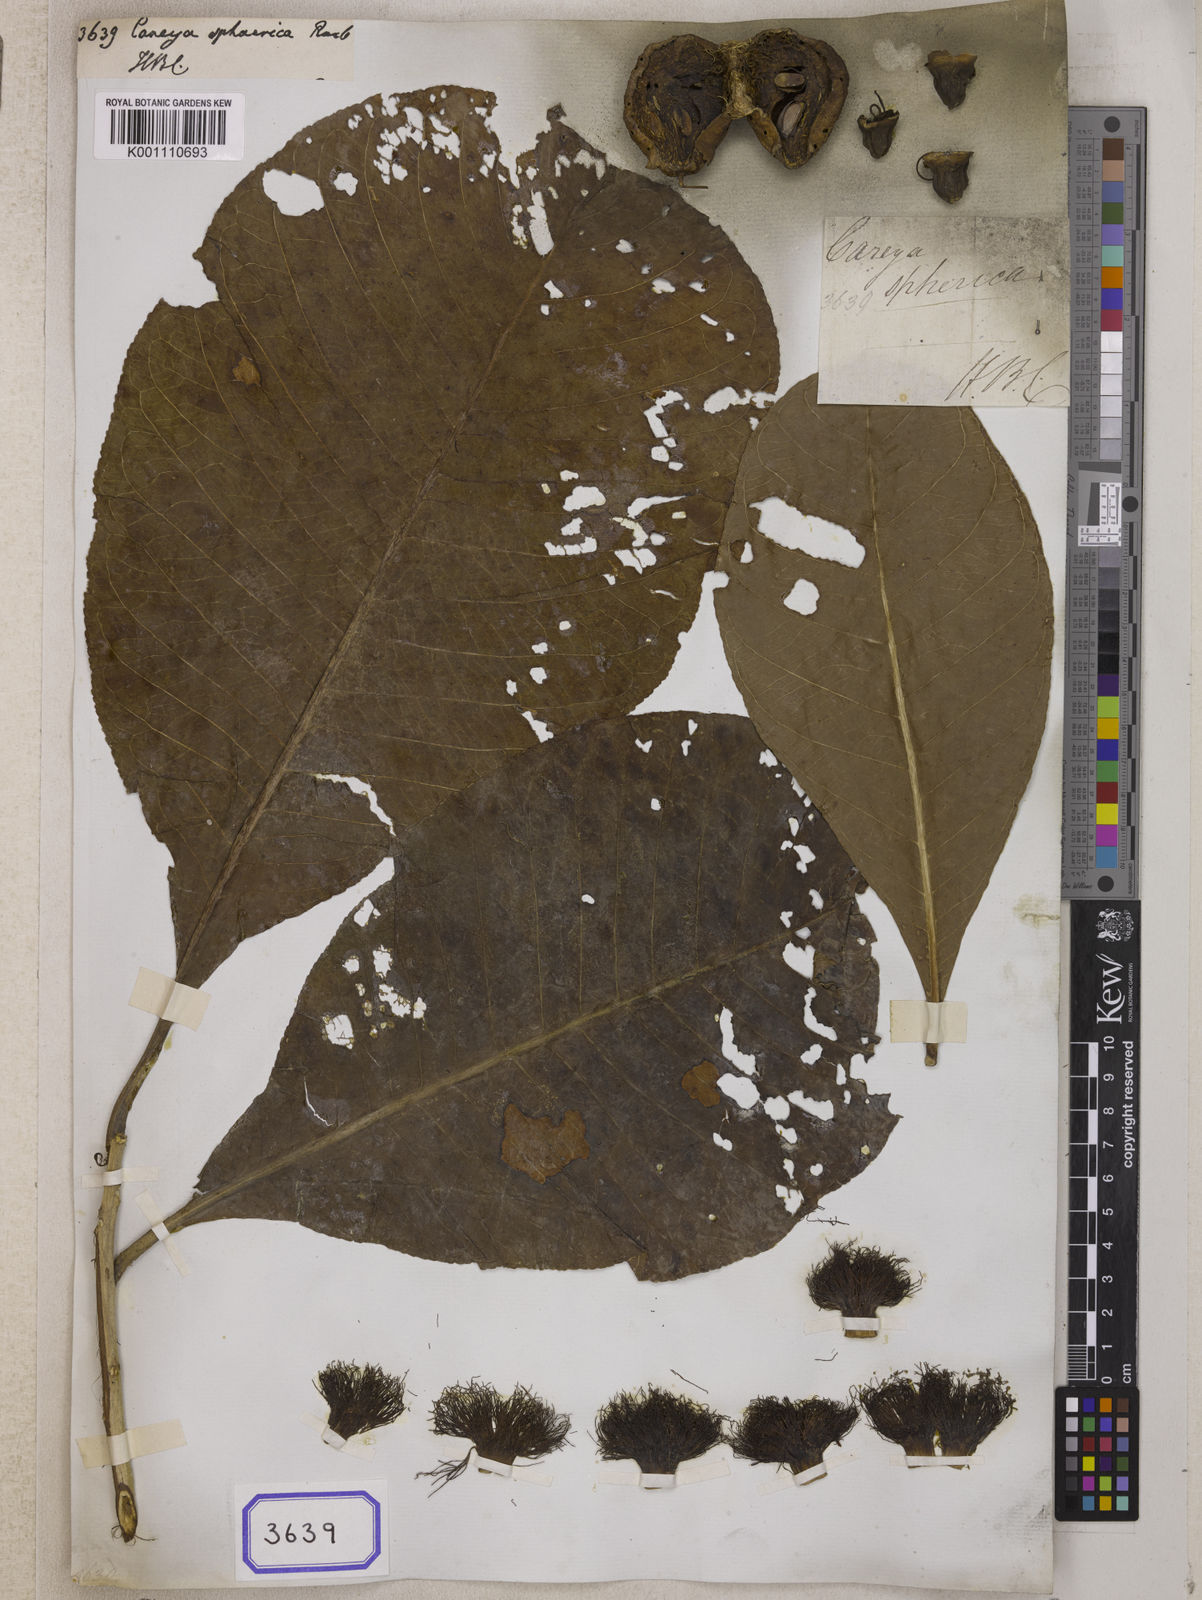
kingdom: Plantae
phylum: Tracheophyta
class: Magnoliopsida
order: Ericales
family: Lecythidaceae
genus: Careya
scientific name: Careya arborea
